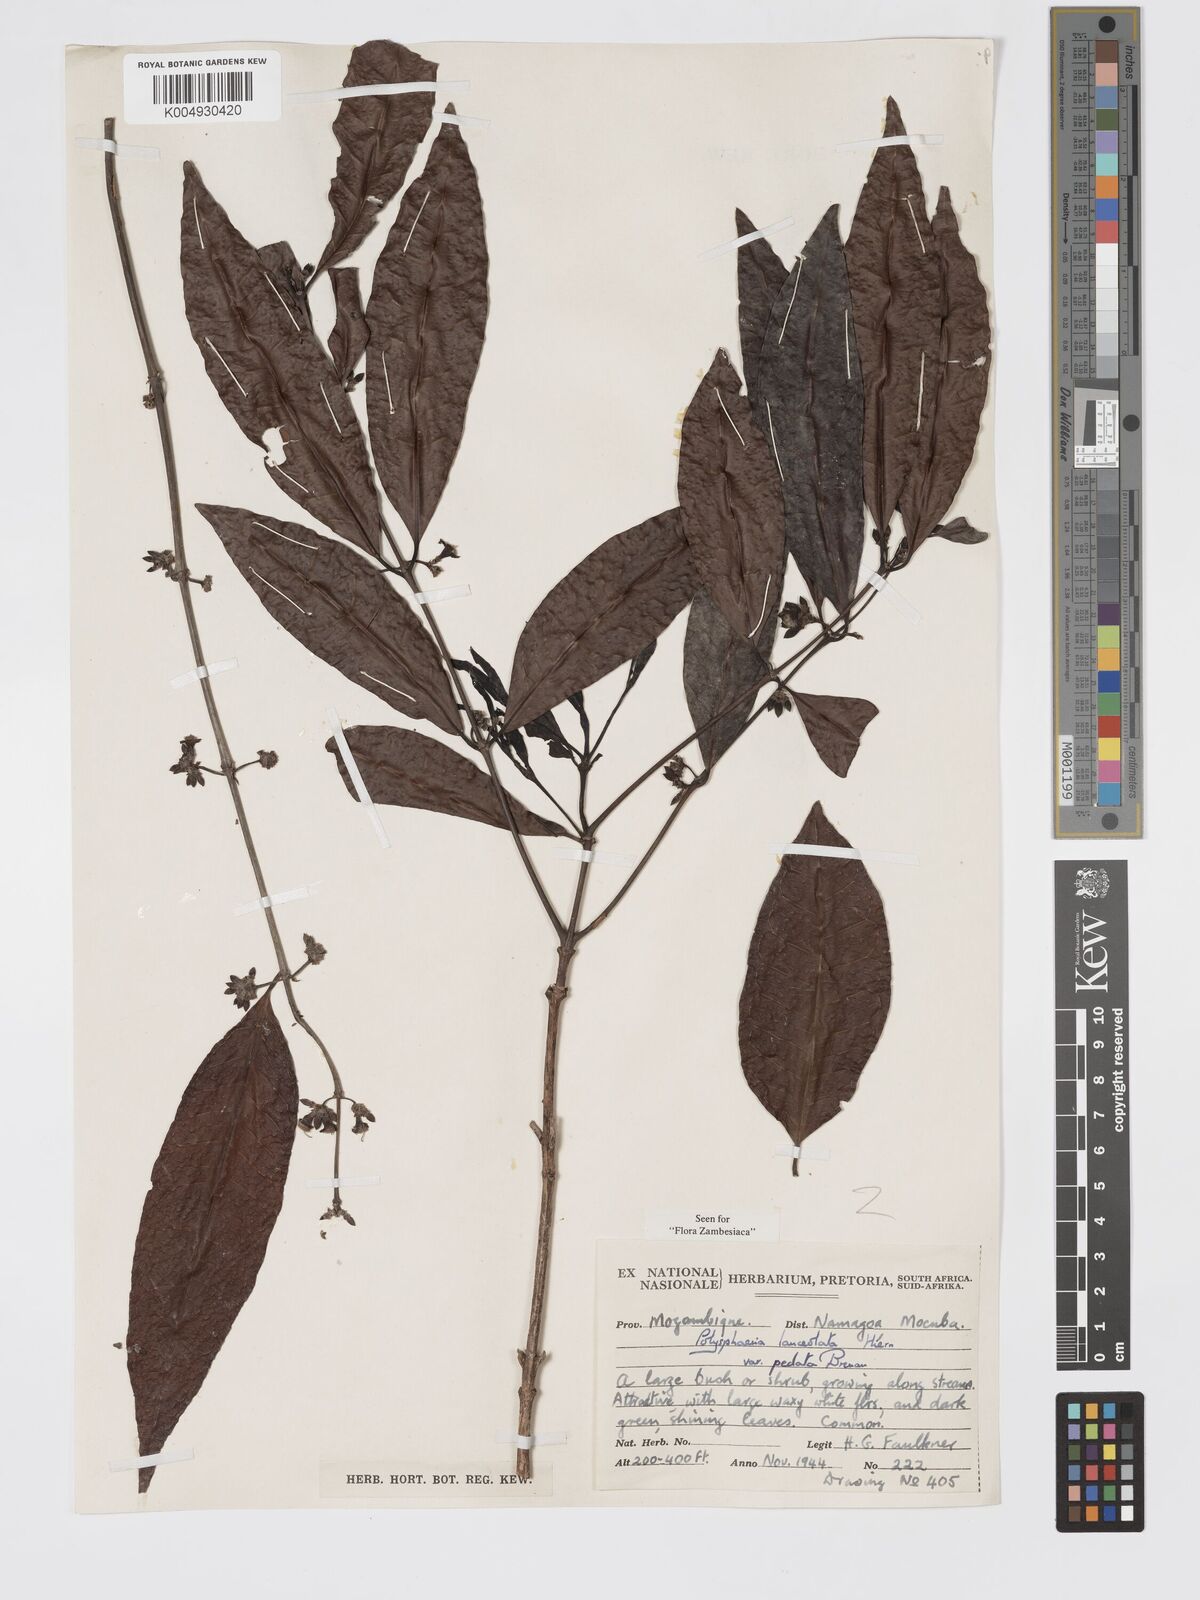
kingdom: Plantae
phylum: Tracheophyta
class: Magnoliopsida
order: Gentianales
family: Rubiaceae
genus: Polysphaeria
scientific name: Polysphaeria lanceolata
